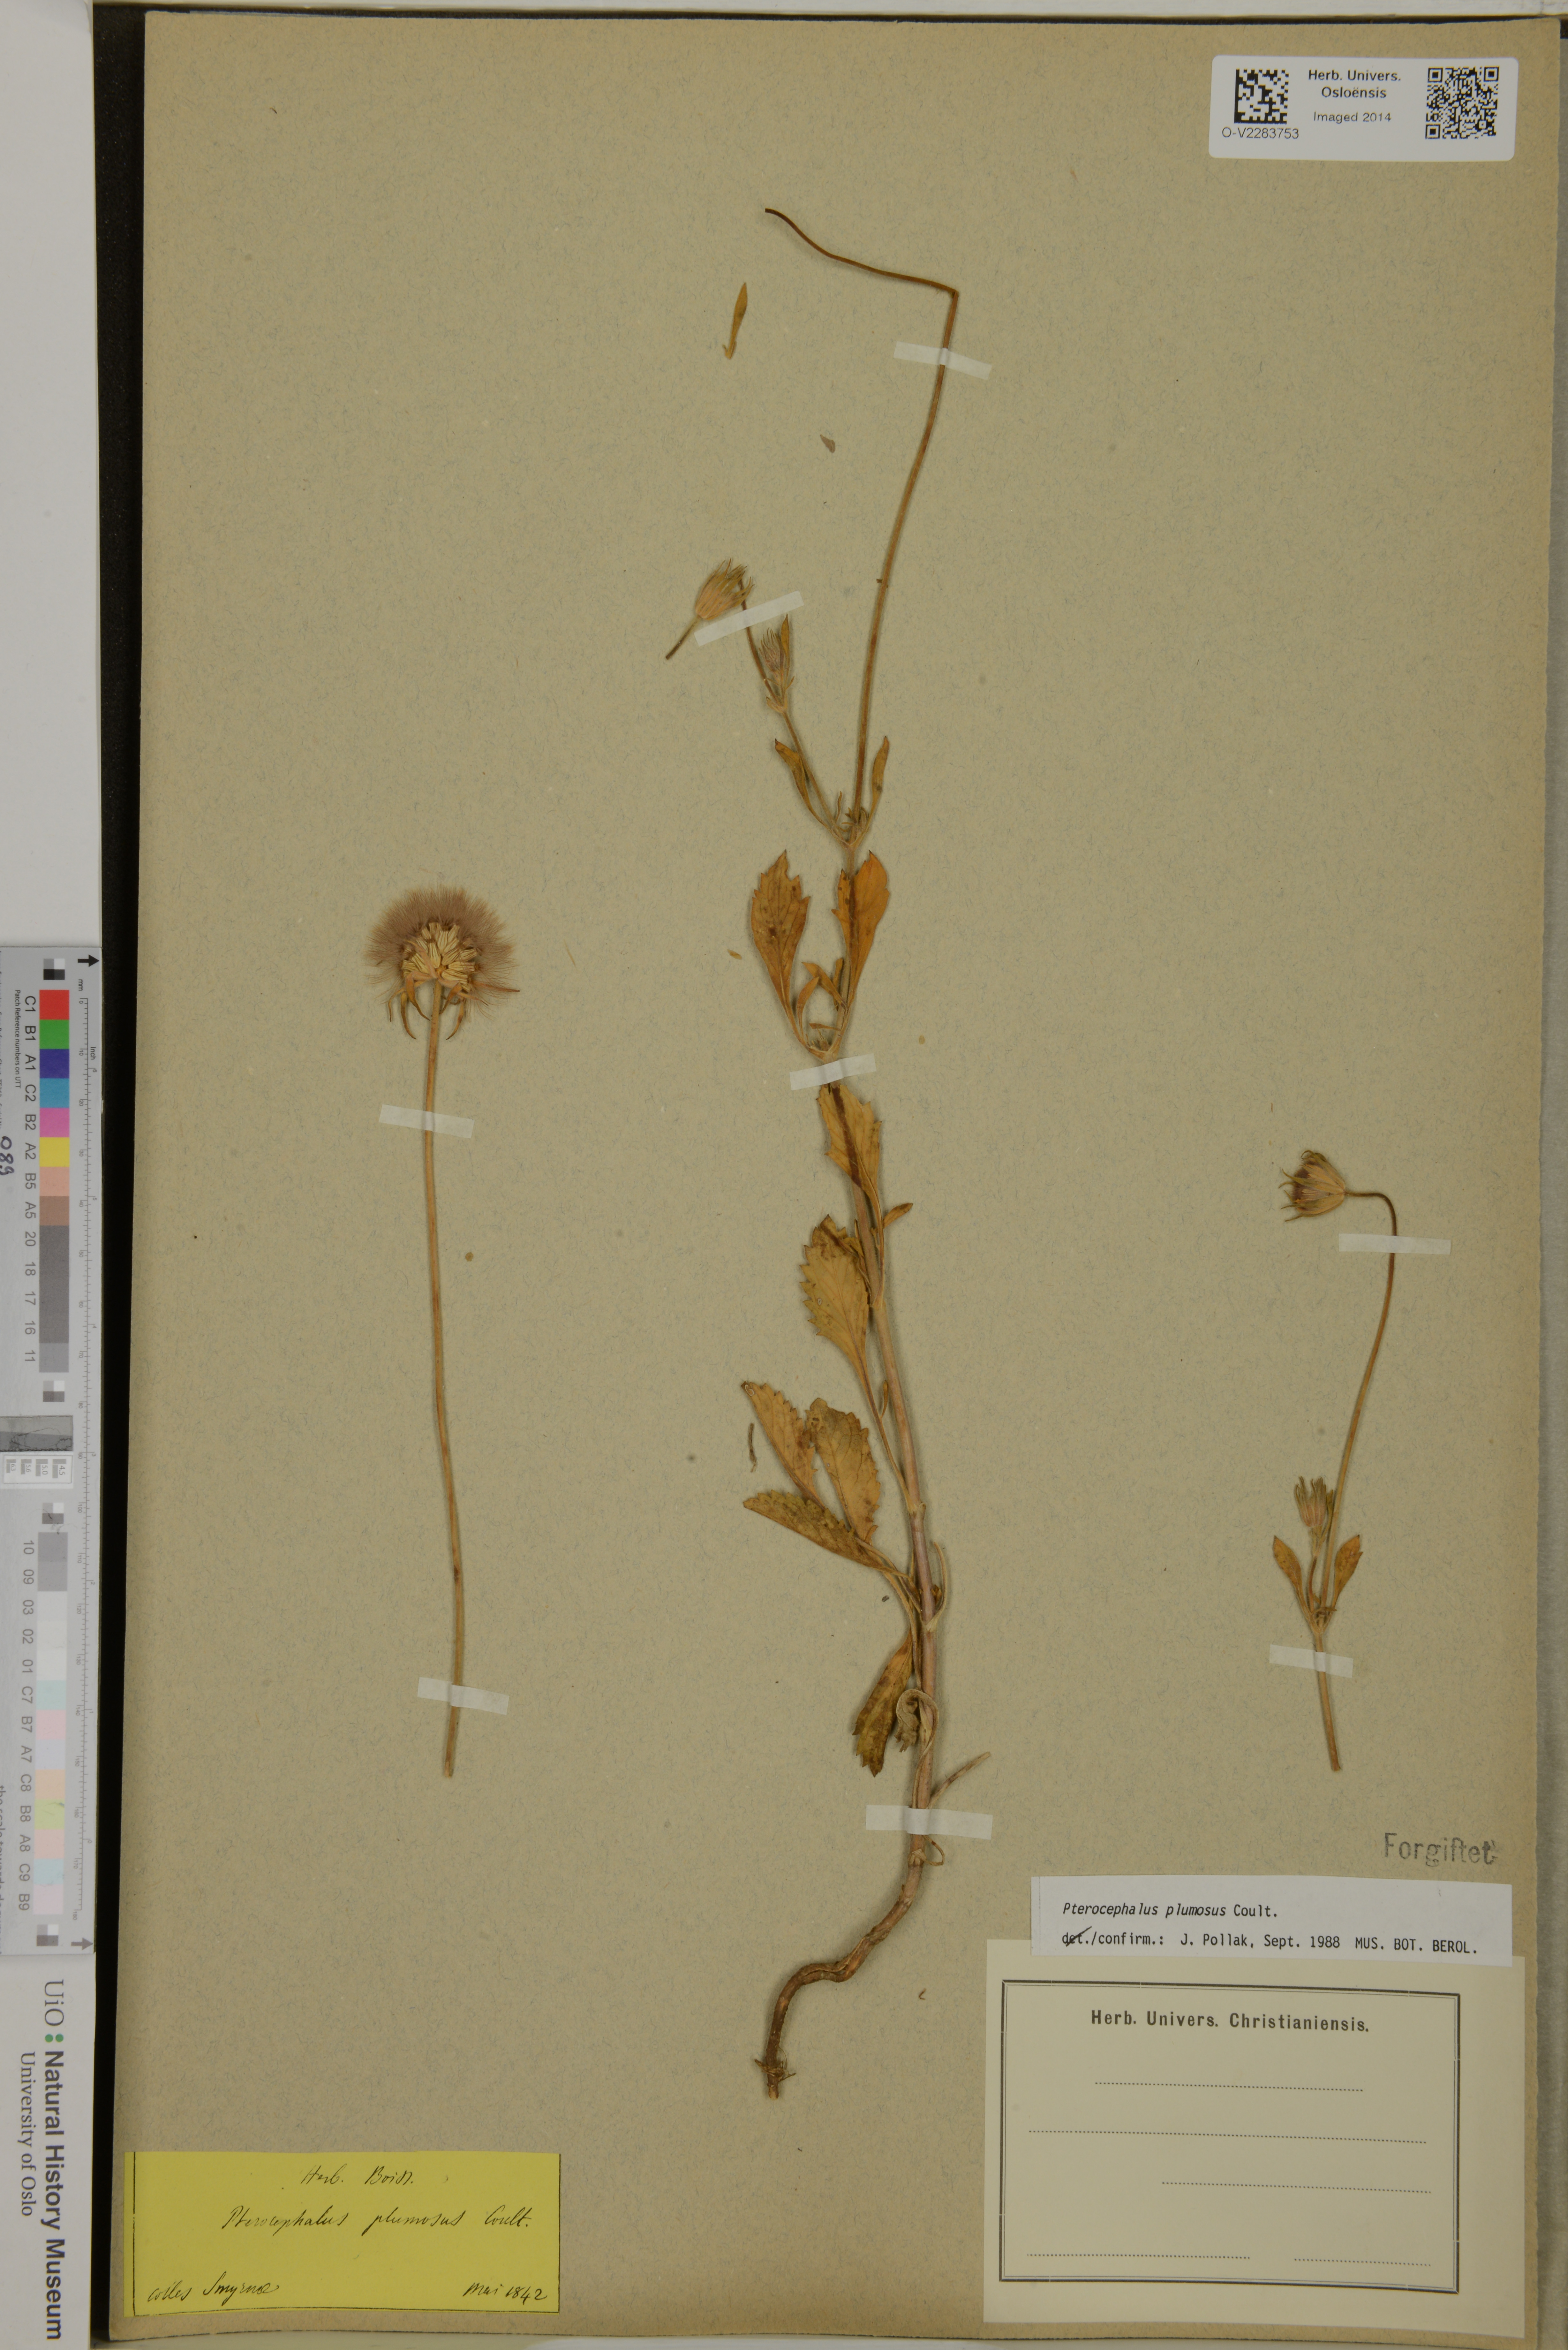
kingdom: Plantae
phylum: Tracheophyta
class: Magnoliopsida
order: Dipsacales
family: Caprifoliaceae
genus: Pterocephalus
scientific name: Pterocephalus plumosus
